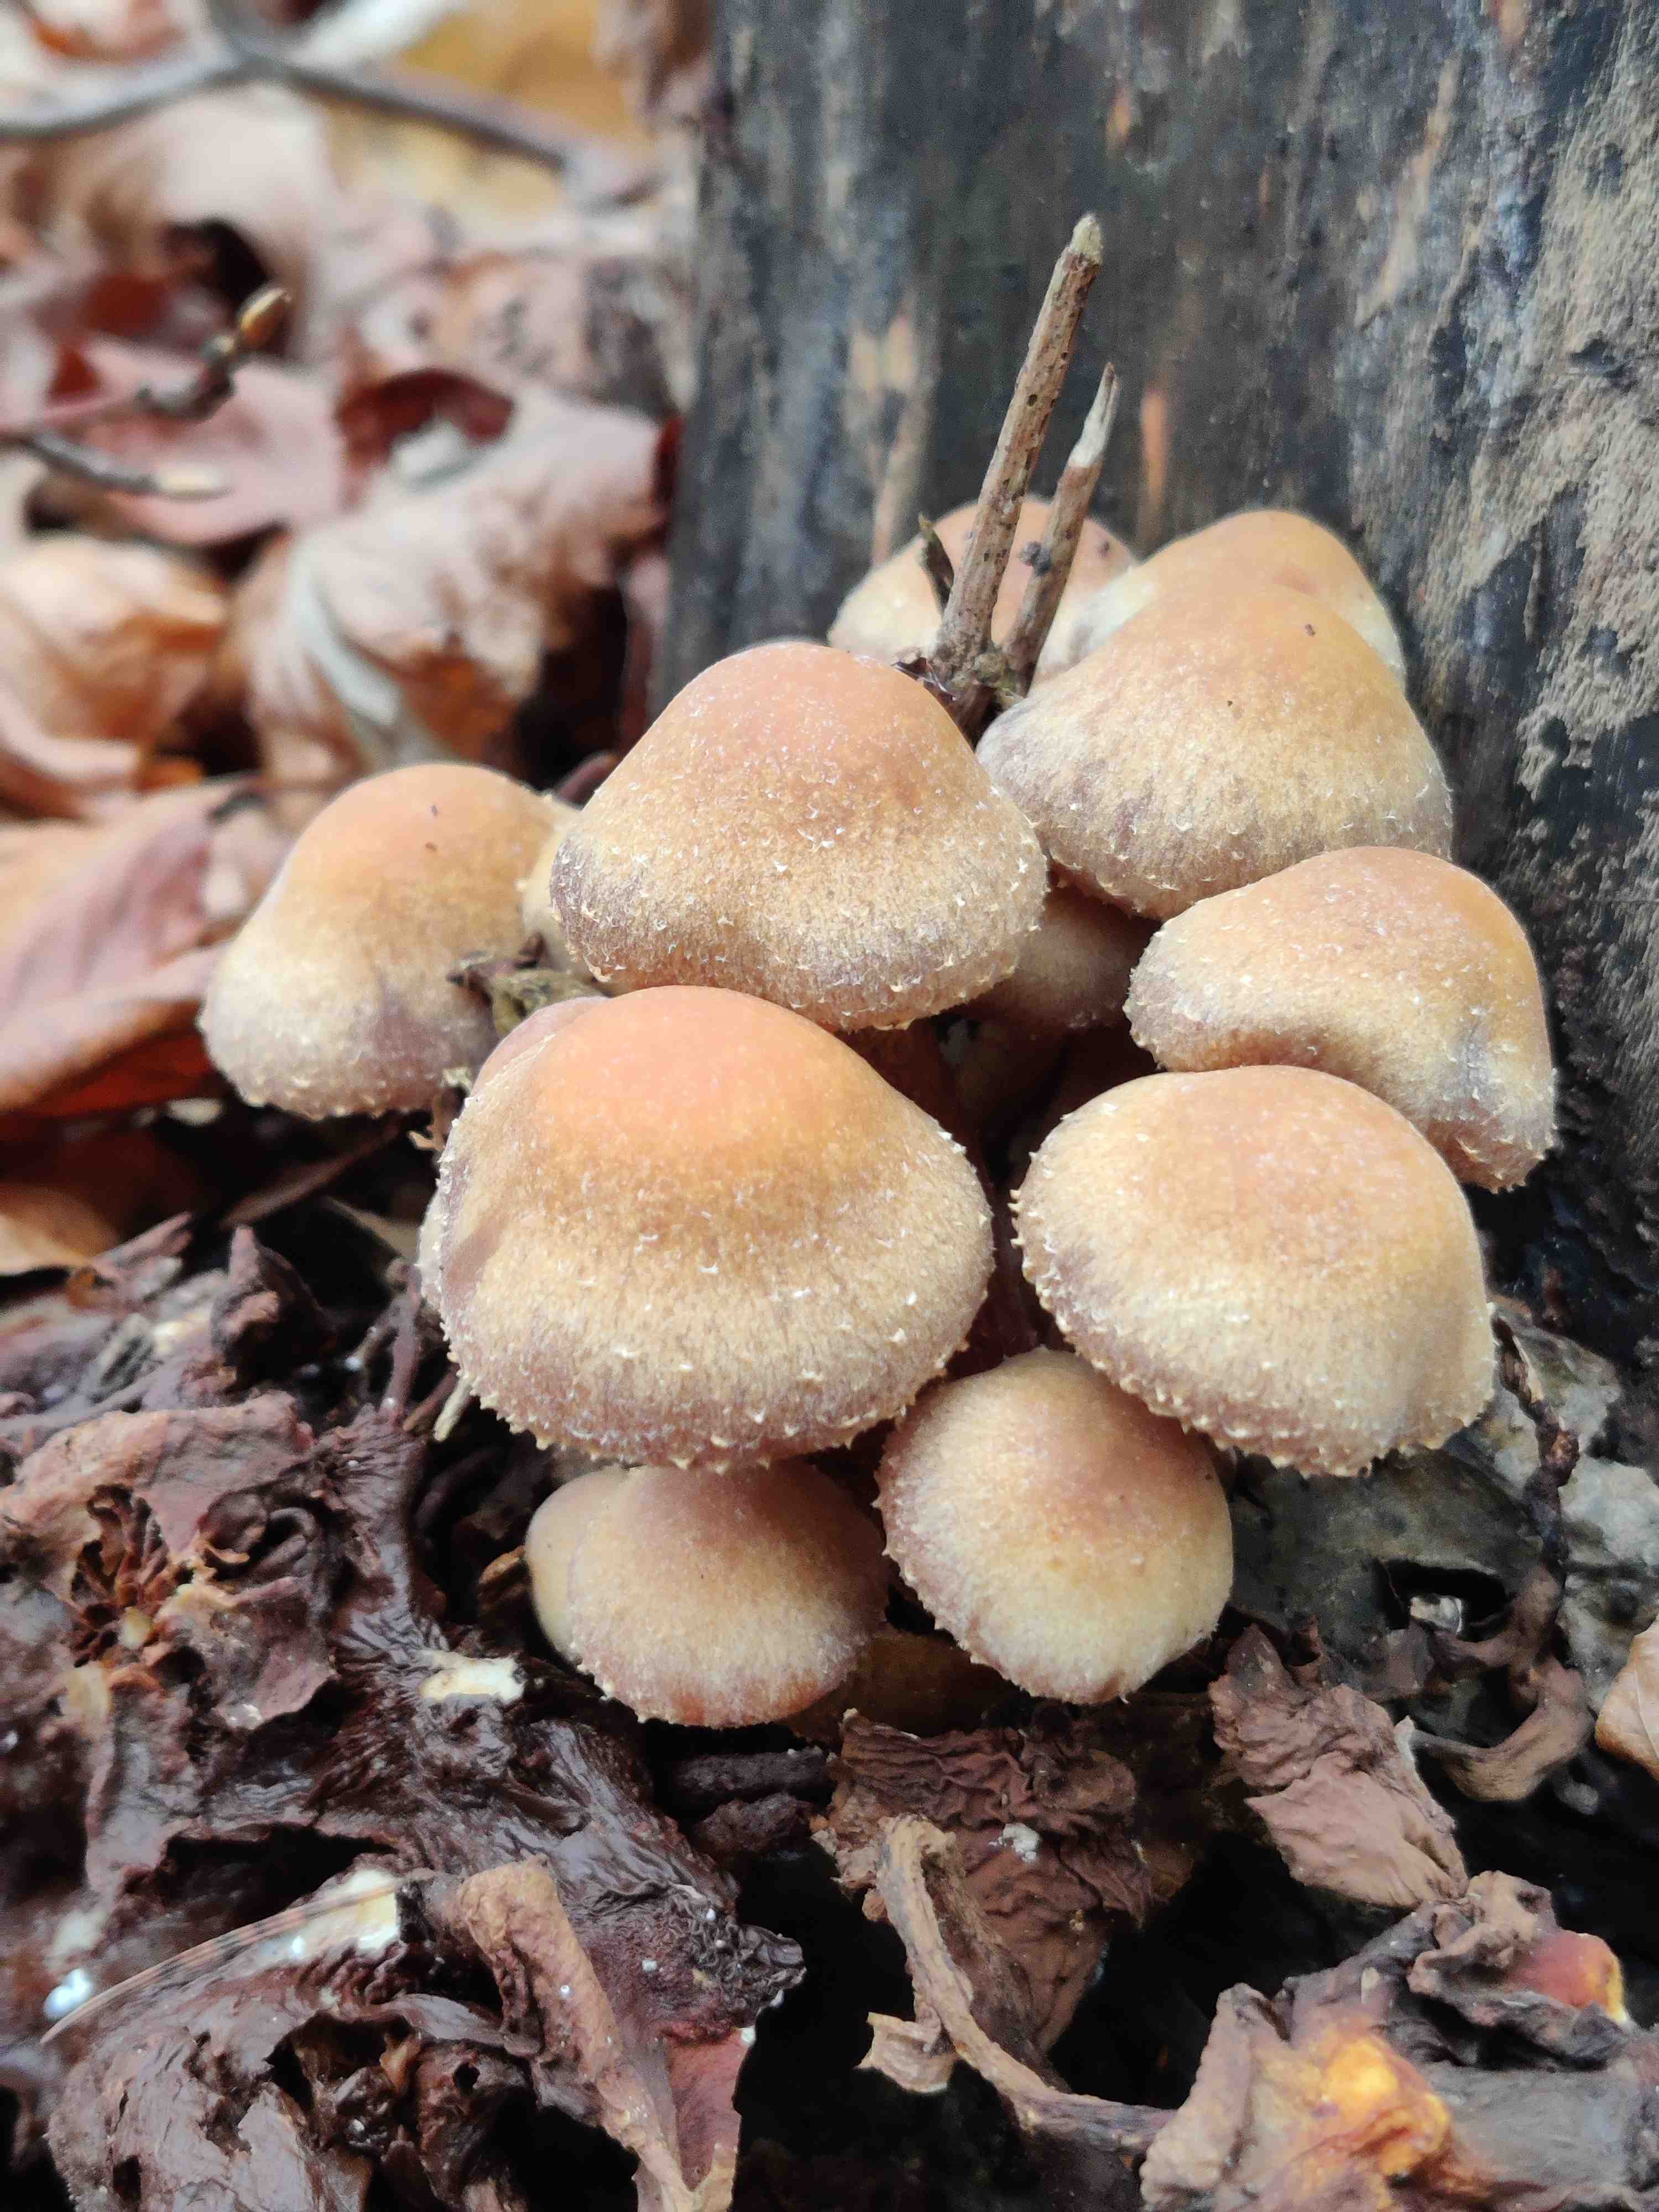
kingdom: Fungi
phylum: Basidiomycota
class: Agaricomycetes
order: Agaricales
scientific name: Agaricales
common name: champignonordenen
